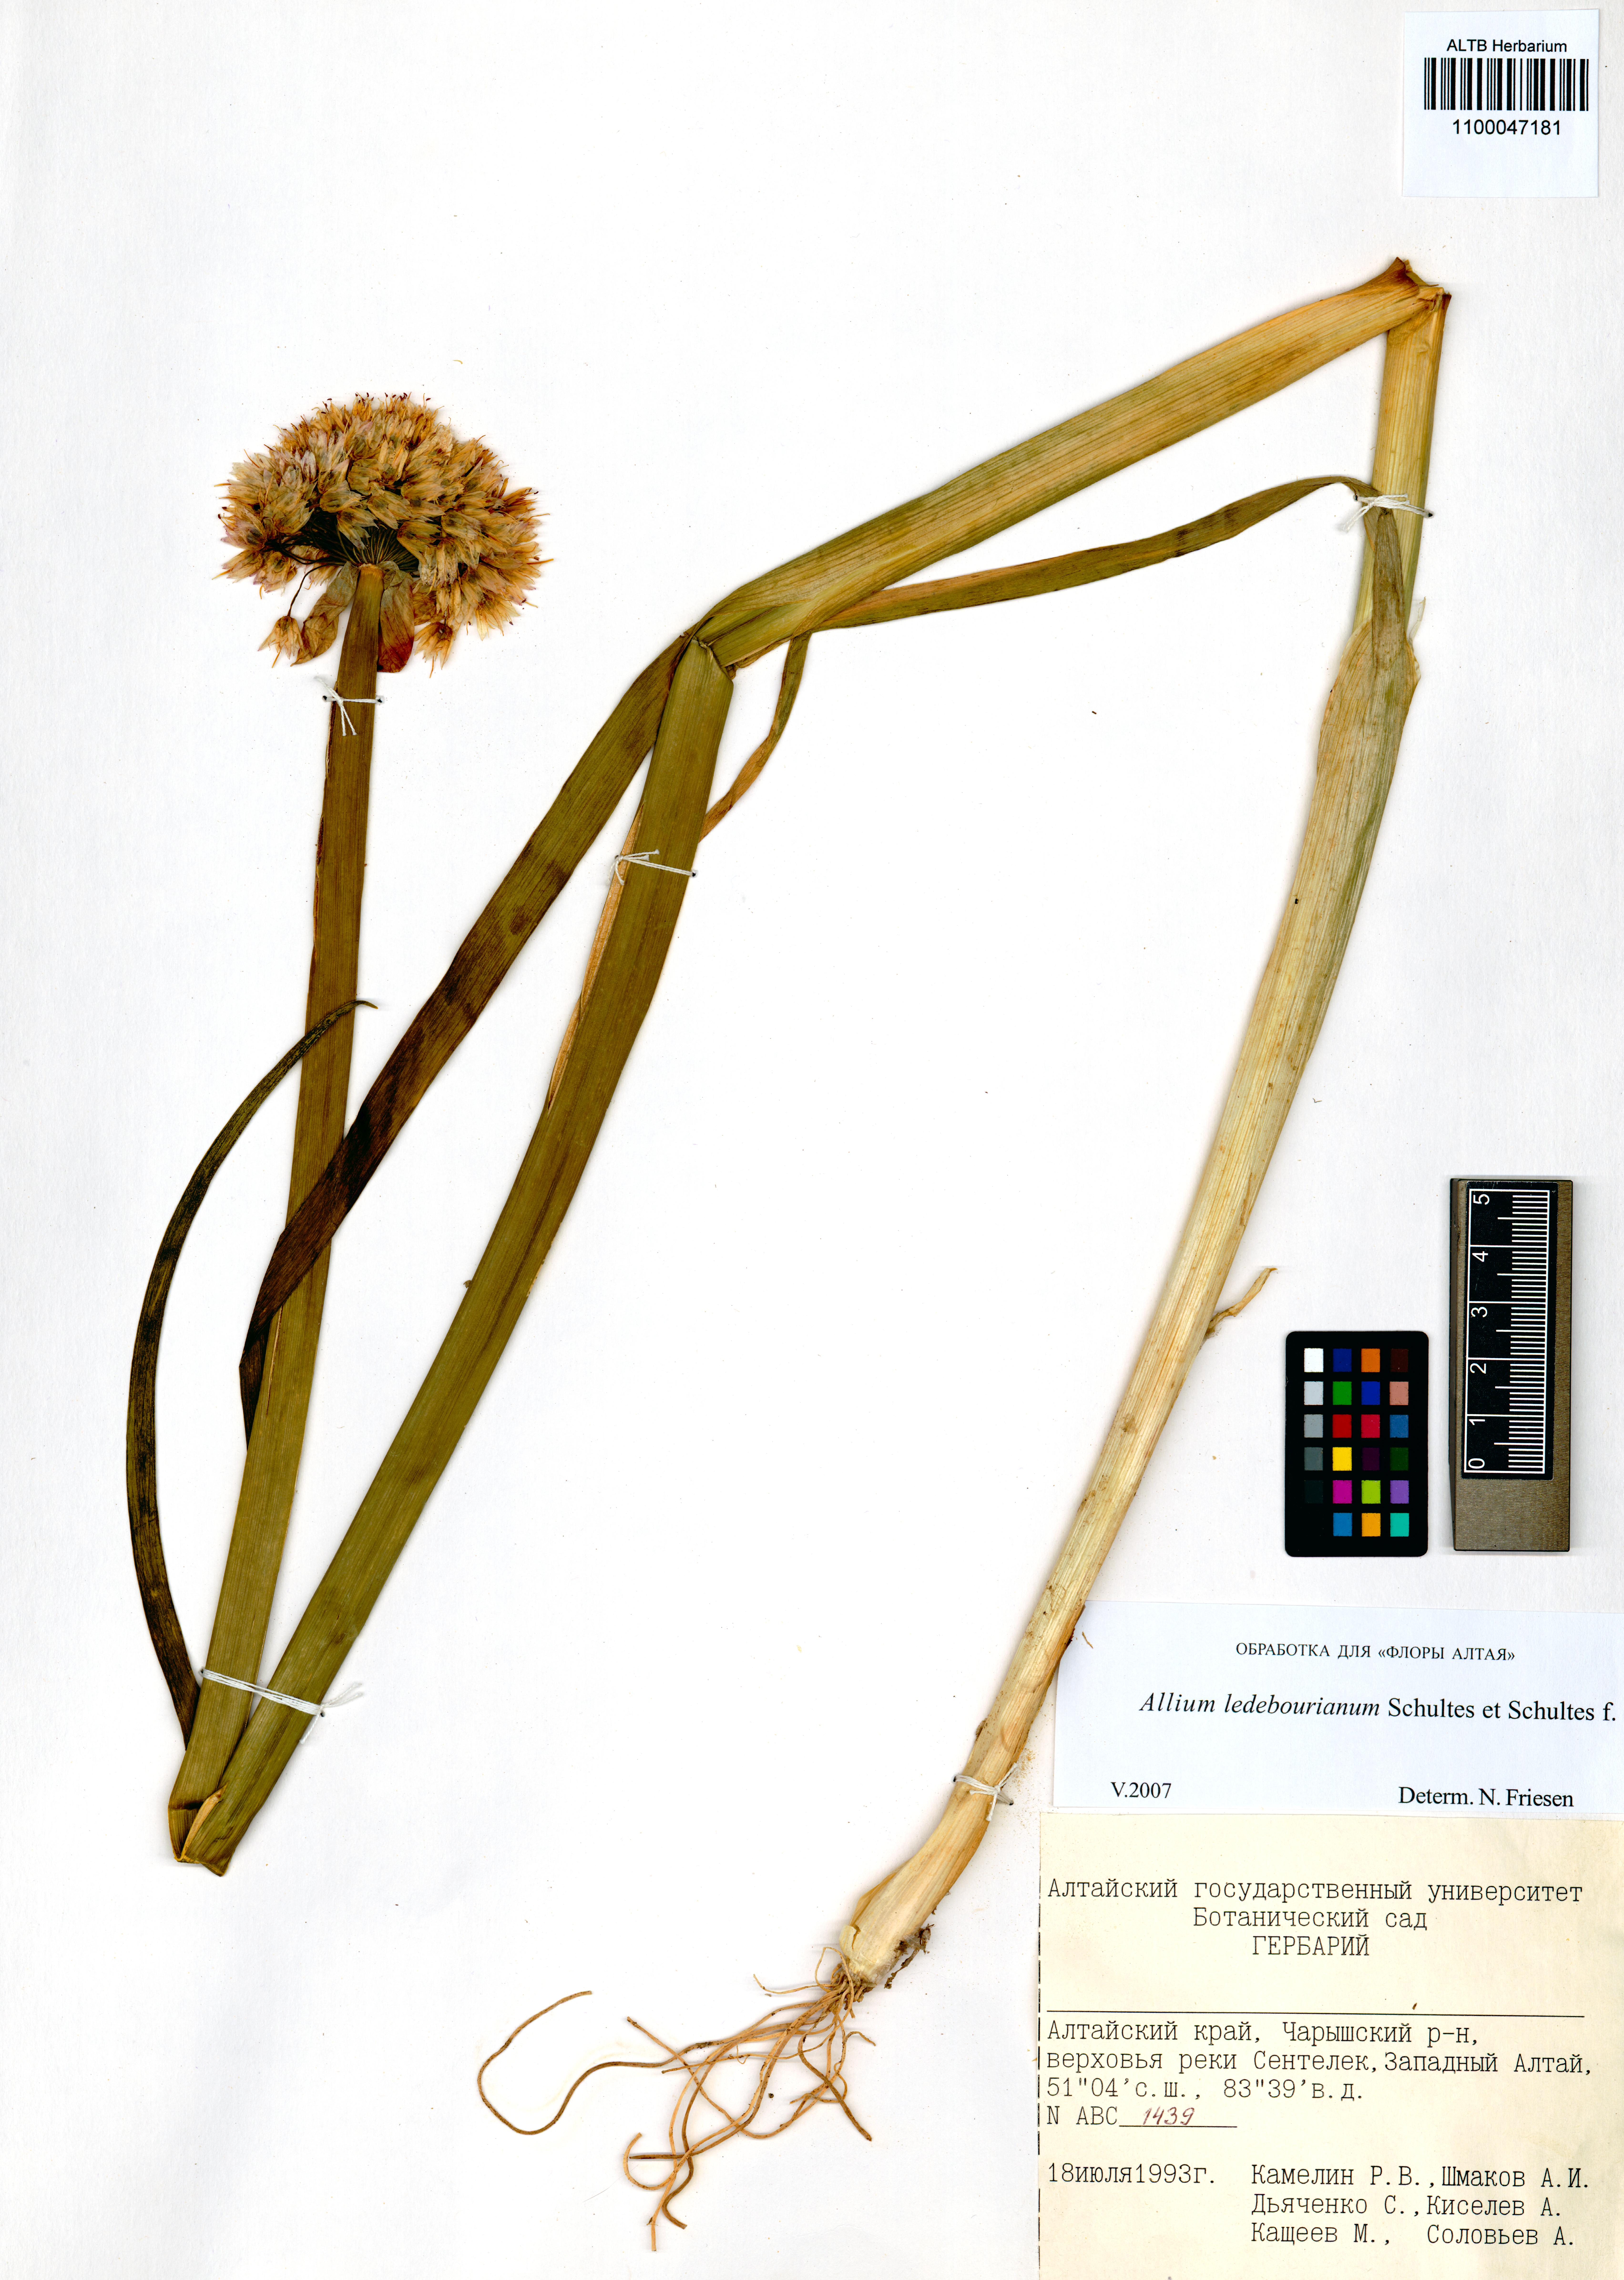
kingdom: Plantae
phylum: Tracheophyta
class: Liliopsida
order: Asparagales
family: Amaryllidaceae
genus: Allium
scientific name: Allium ledebourianum
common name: Ledebour chive
